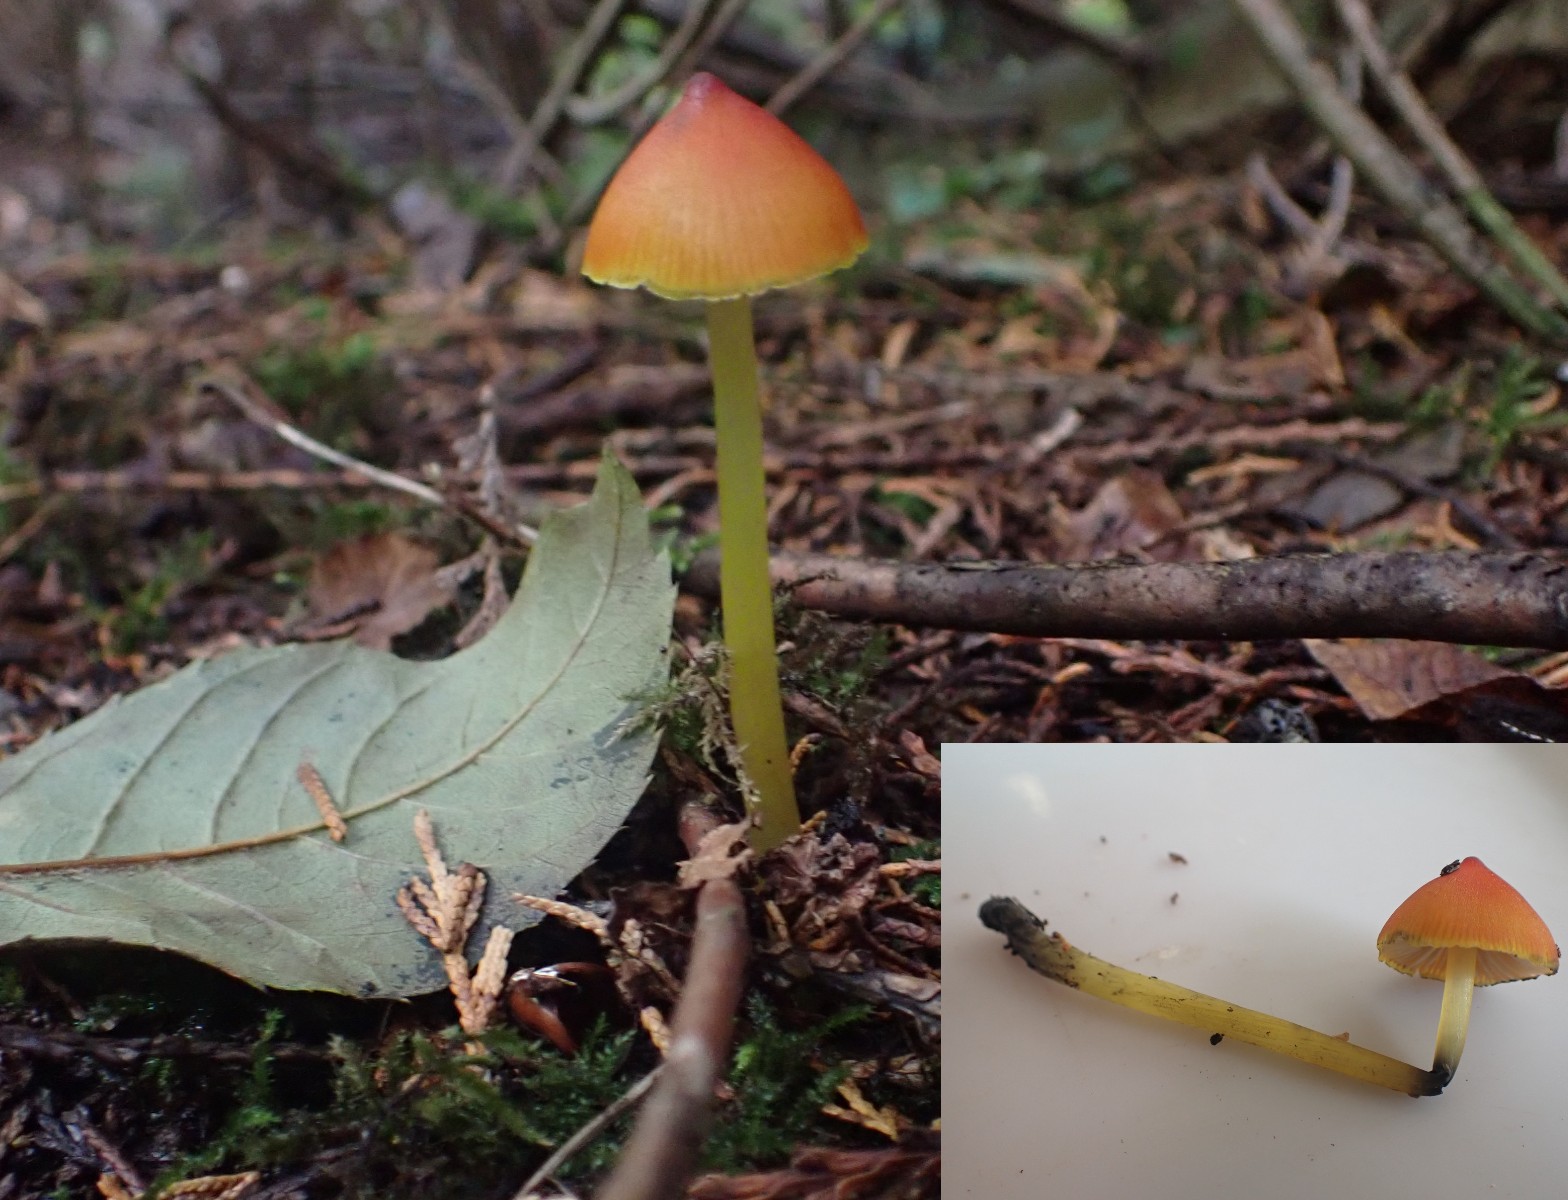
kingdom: Fungi
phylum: Basidiomycota
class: Agaricomycetes
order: Agaricales
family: Hygrophoraceae
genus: Hygrocybe
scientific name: Hygrocybe conica
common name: kegle-vokshat
